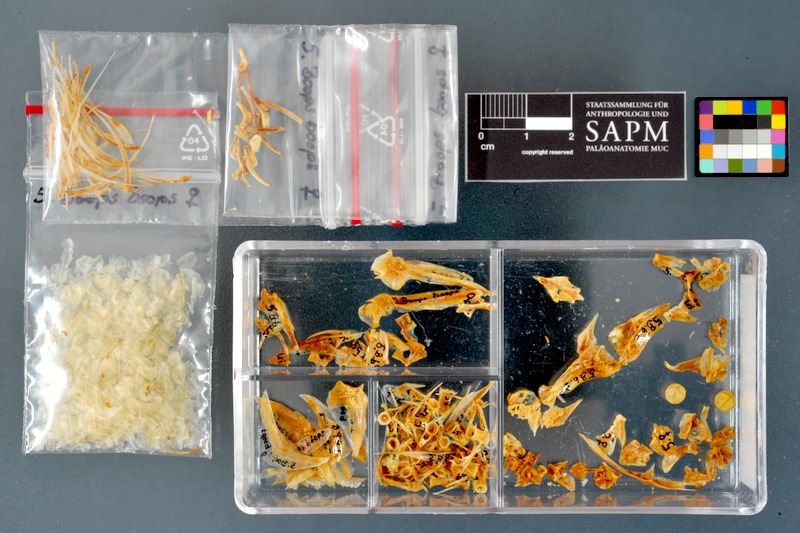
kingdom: Animalia
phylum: Chordata
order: Perciformes
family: Sparidae
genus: Boops
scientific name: Boops boops
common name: Bogue
